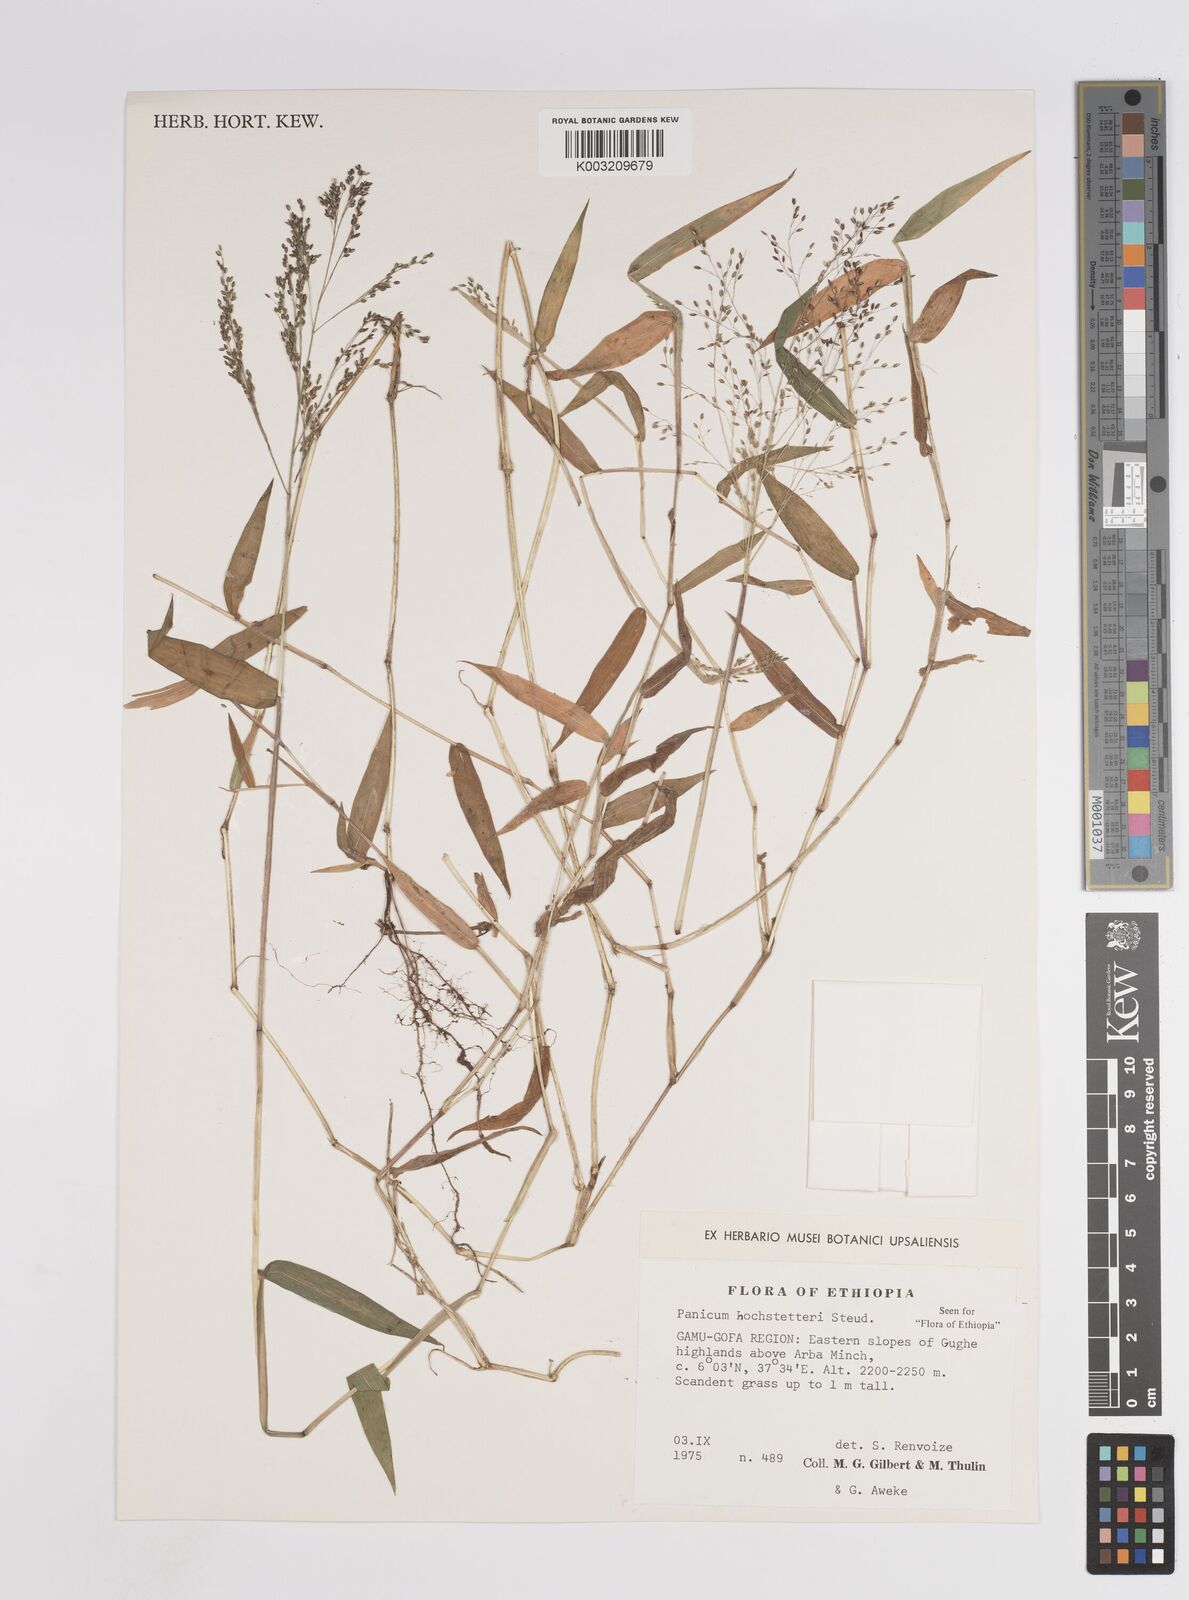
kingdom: Plantae
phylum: Tracheophyta
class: Liliopsida
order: Poales
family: Poaceae
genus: Panicum
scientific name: Panicum hochstetteri
